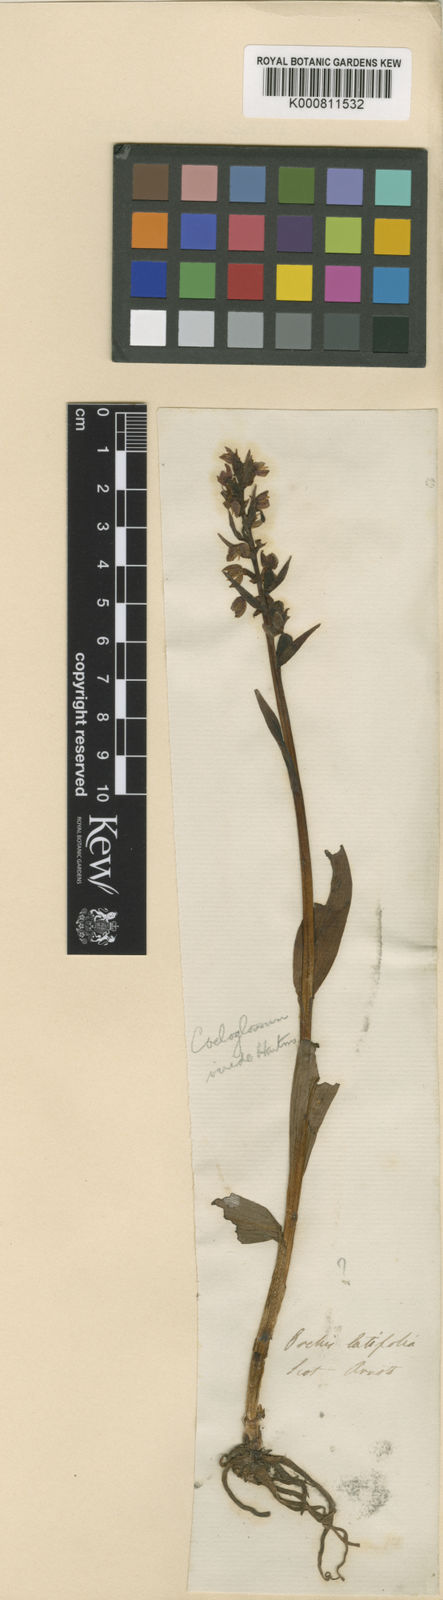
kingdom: Plantae
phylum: Tracheophyta
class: Liliopsida
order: Asparagales
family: Orchidaceae
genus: Dactylorhiza
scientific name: Dactylorhiza viridis
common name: Longbract frog orchid
